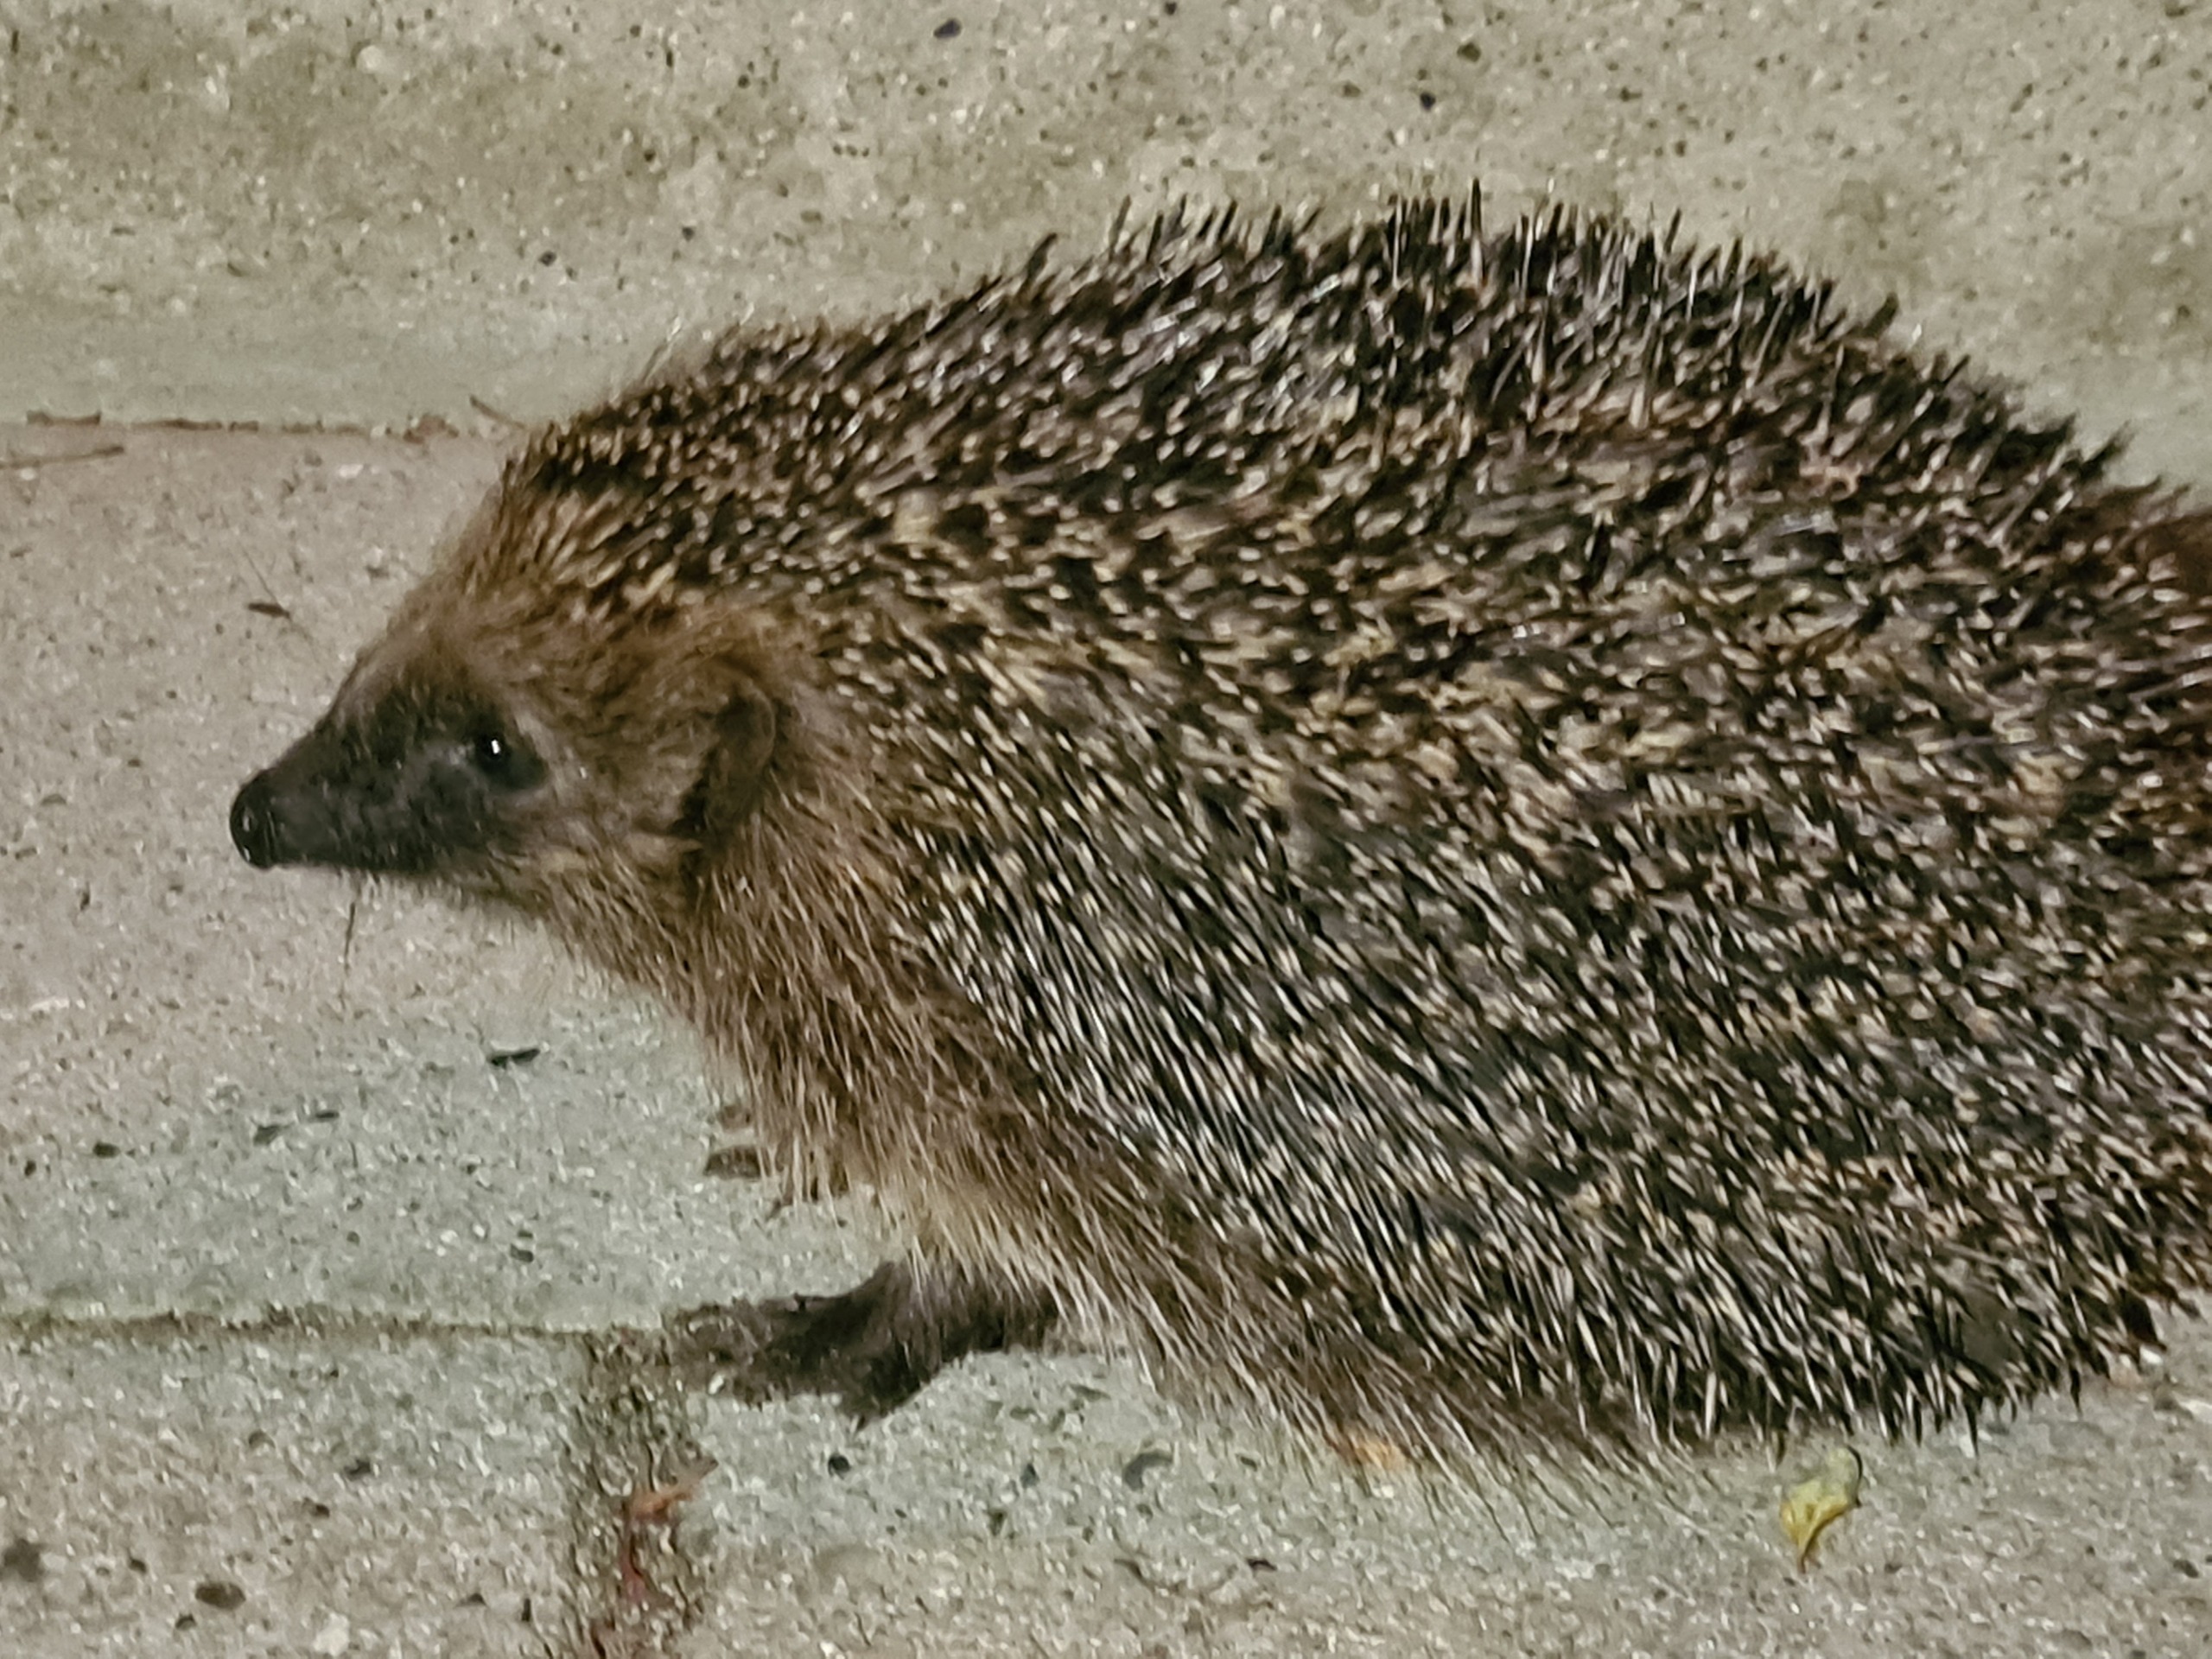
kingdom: Animalia
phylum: Chordata
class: Mammalia
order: Erinaceomorpha
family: Erinaceidae
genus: Erinaceus
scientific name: Erinaceus europaeus
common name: Pindsvin
